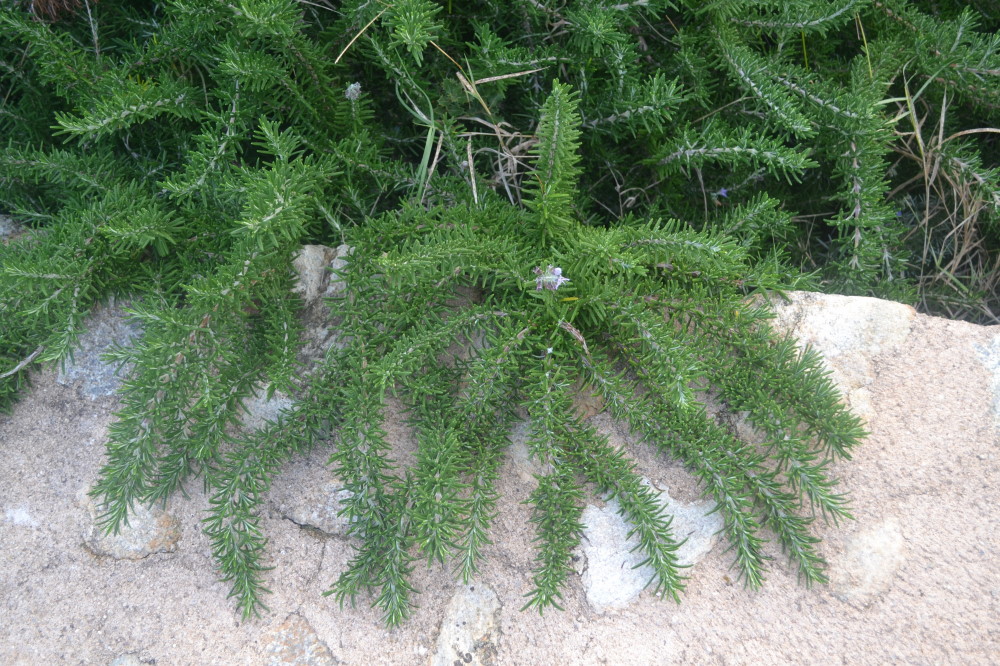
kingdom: Plantae
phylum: Tracheophyta
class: Magnoliopsida
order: Lamiales
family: Lamiaceae
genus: Salvia
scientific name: Salvia rosmarinus
